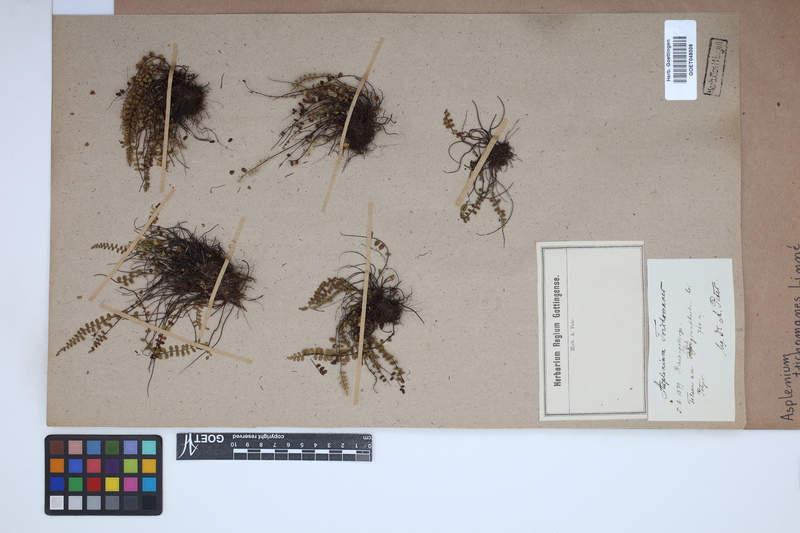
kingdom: Plantae
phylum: Tracheophyta
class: Polypodiopsida
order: Polypodiales
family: Aspleniaceae
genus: Asplenium
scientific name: Asplenium trichomanes
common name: Maidenhair spleenwort
